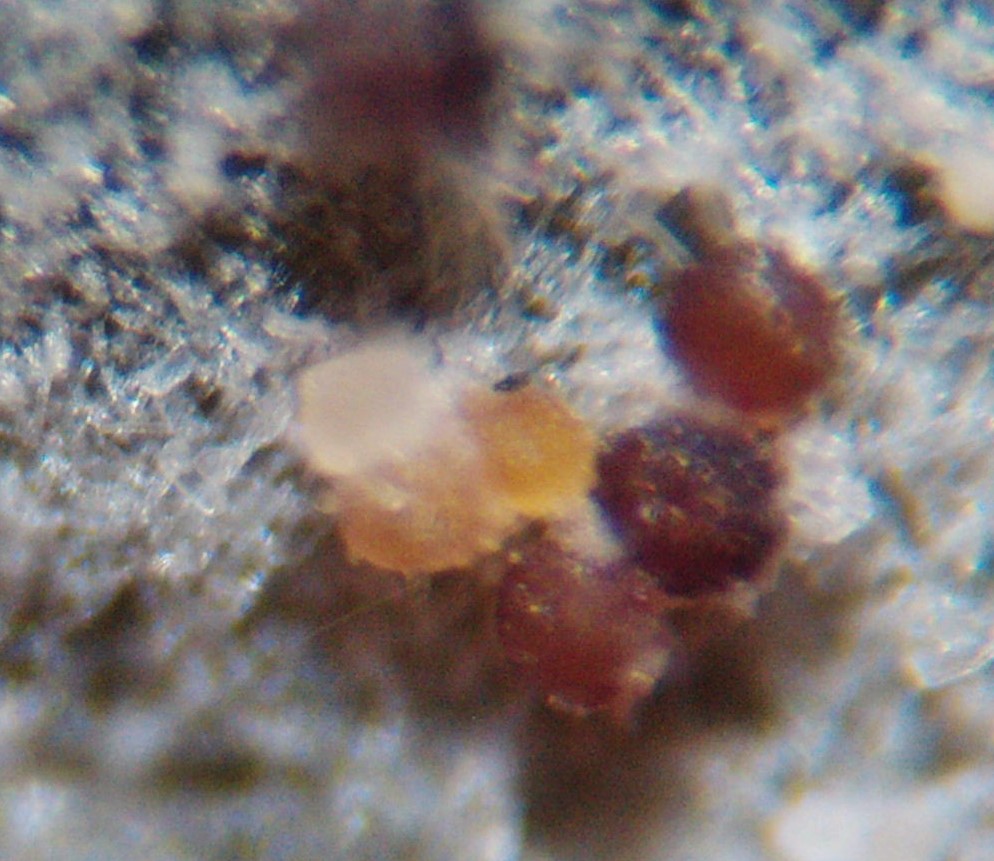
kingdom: Fungi
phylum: Ascomycota
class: Leotiomycetes
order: Helotiales
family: Erysiphaceae
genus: Erysiphe
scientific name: Erysiphe syringae-japonicae
